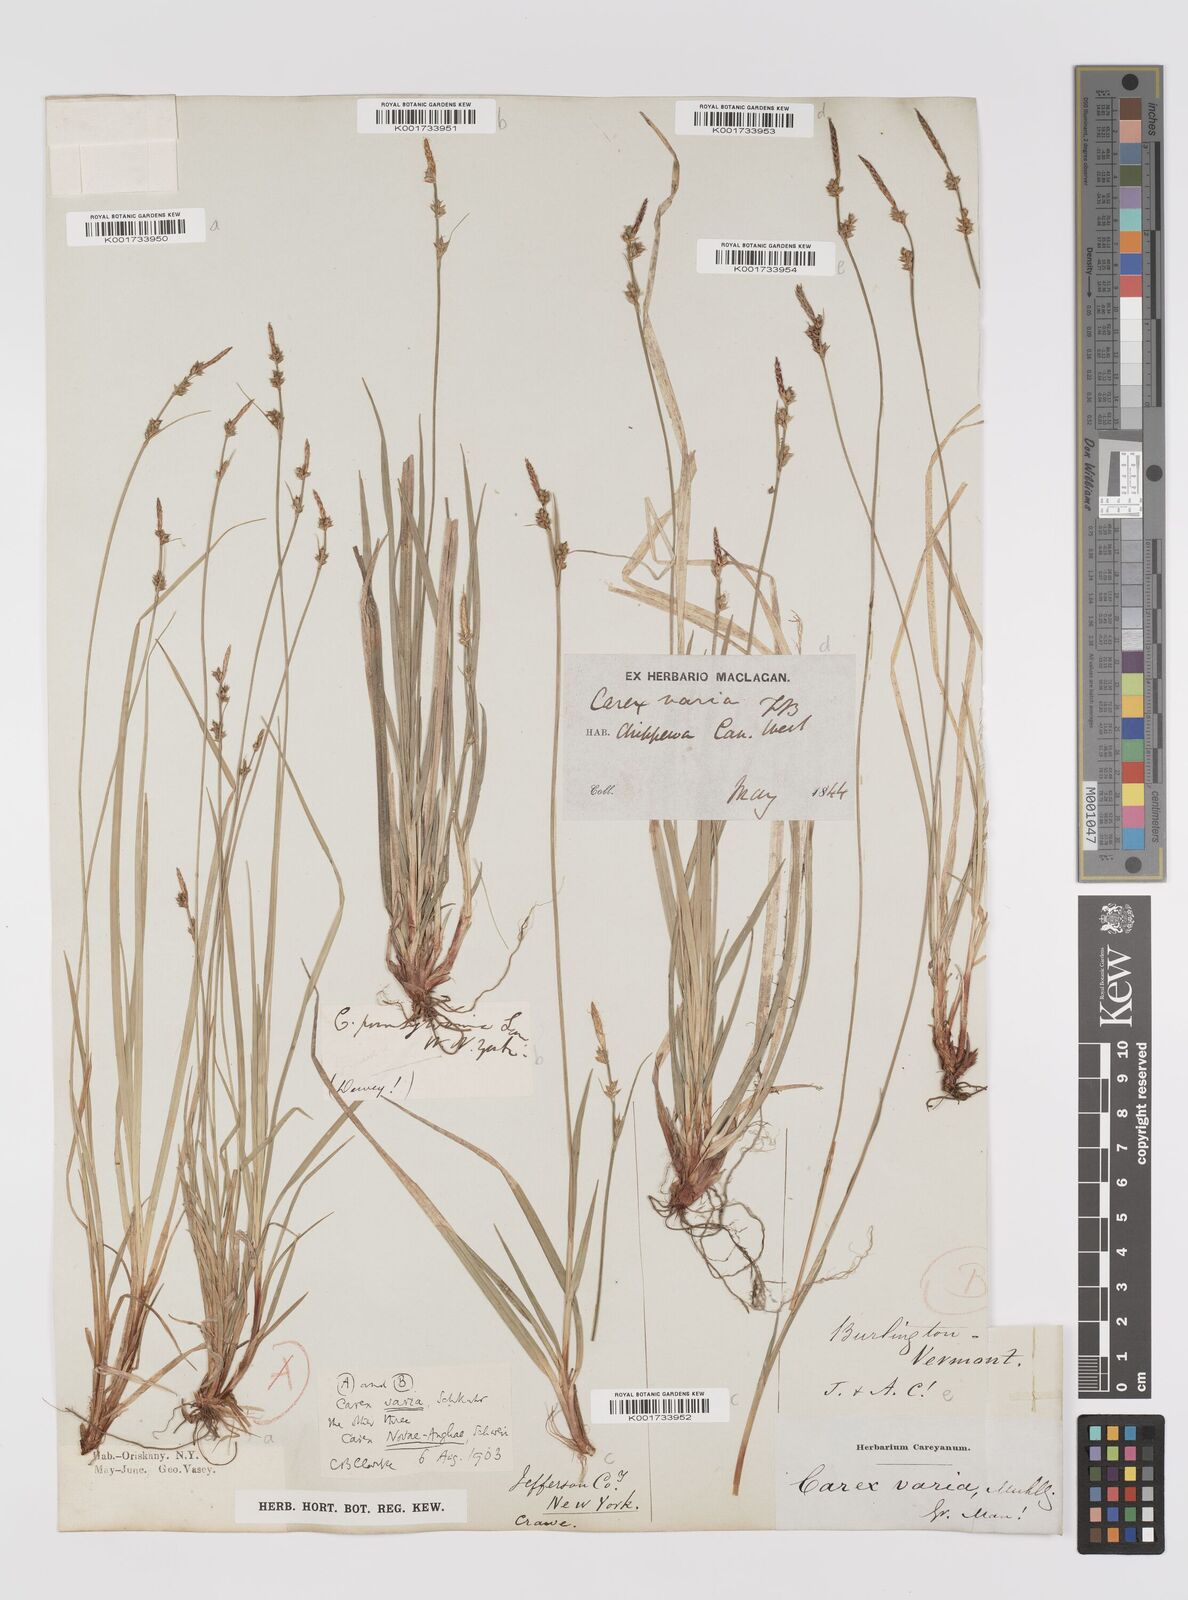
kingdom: Plantae
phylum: Tracheophyta
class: Liliopsida
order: Poales
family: Cyperaceae
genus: Carex
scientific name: Carex albicans
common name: Bellow-beaked sedge
